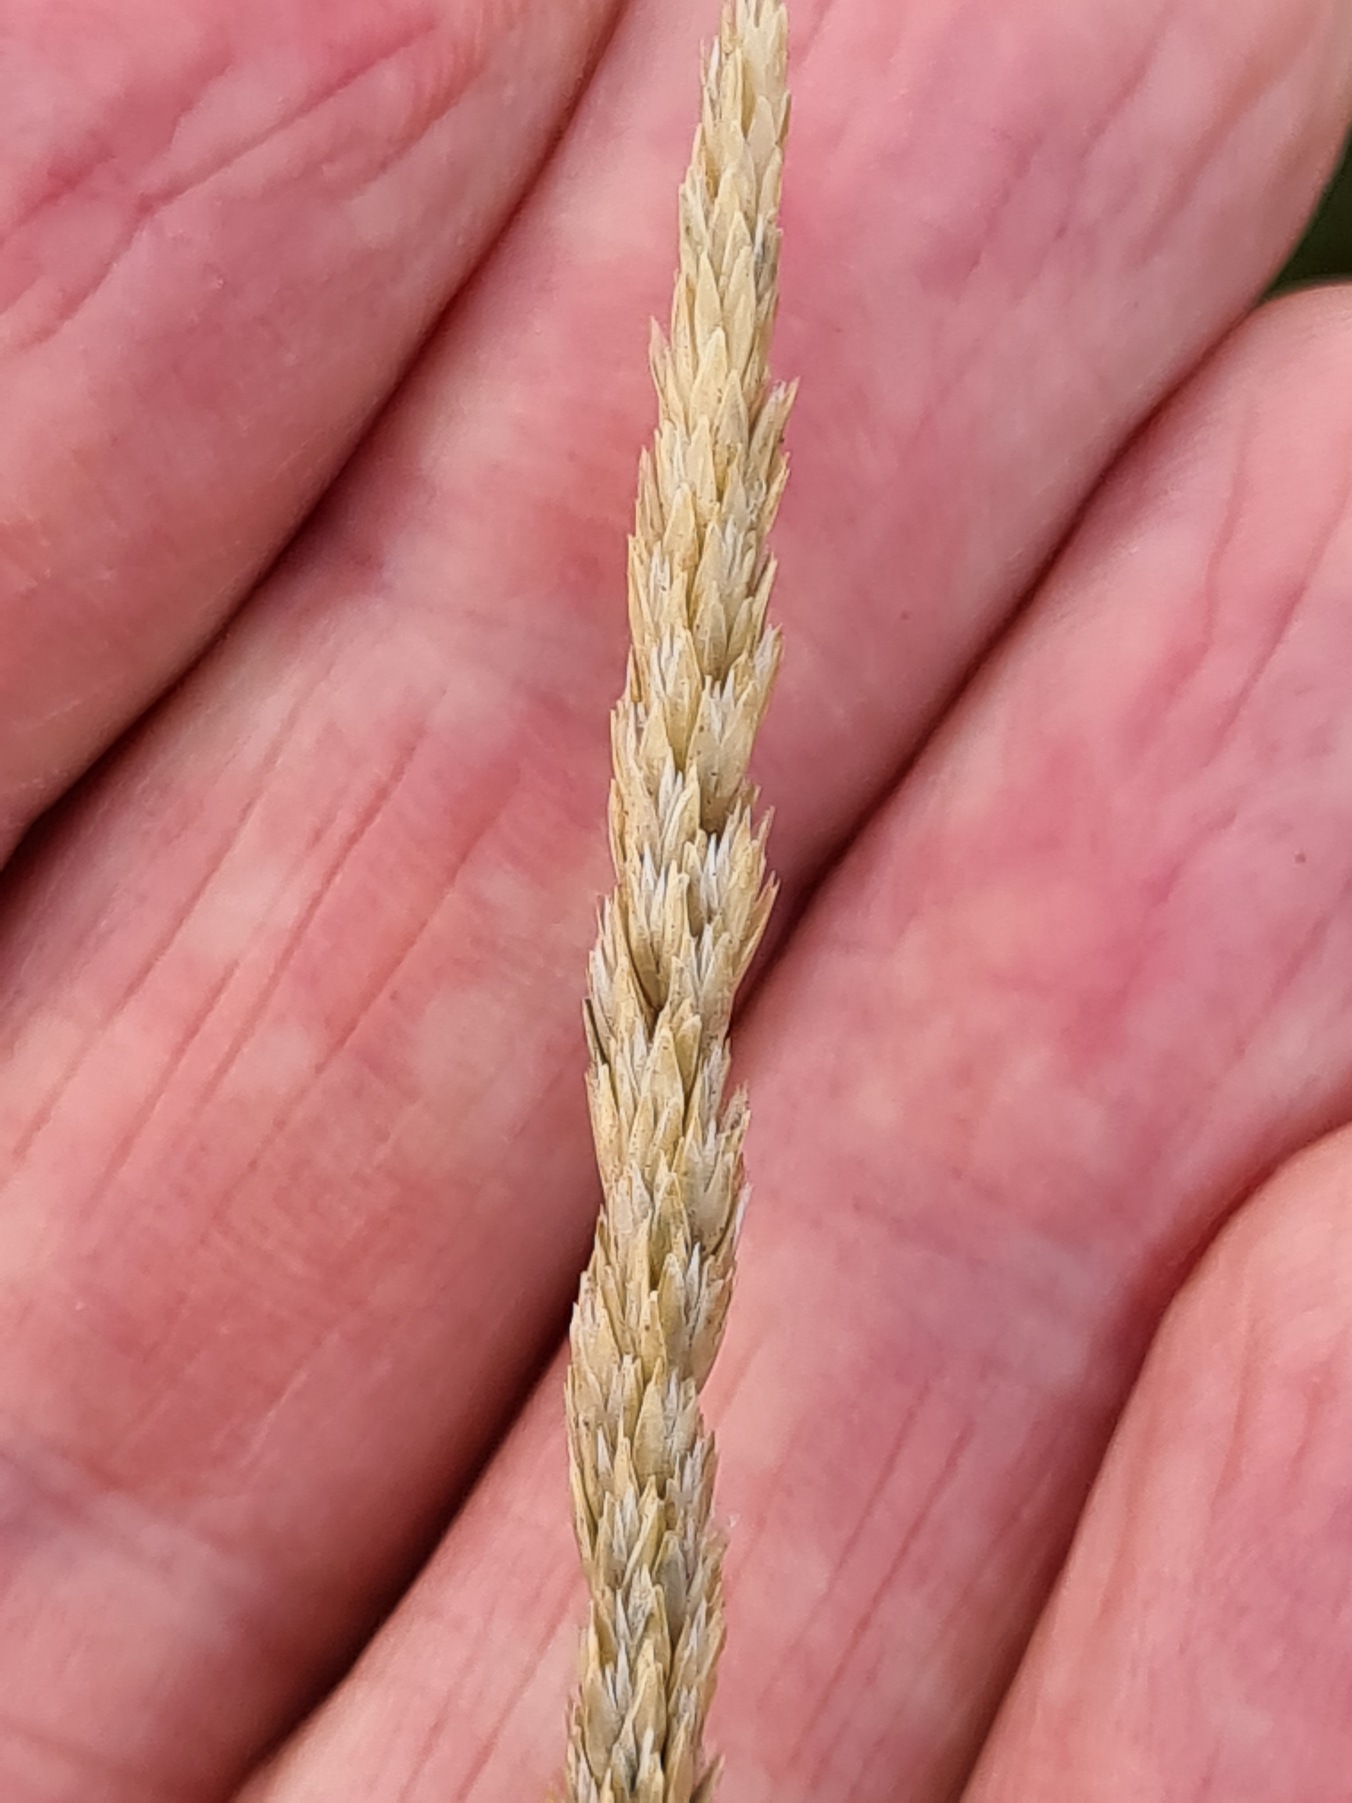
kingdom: Plantae
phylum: Tracheophyta
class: Liliopsida
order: Poales
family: Poaceae
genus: Koeleria
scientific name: Koeleria glauca
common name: Klit-kambunke
